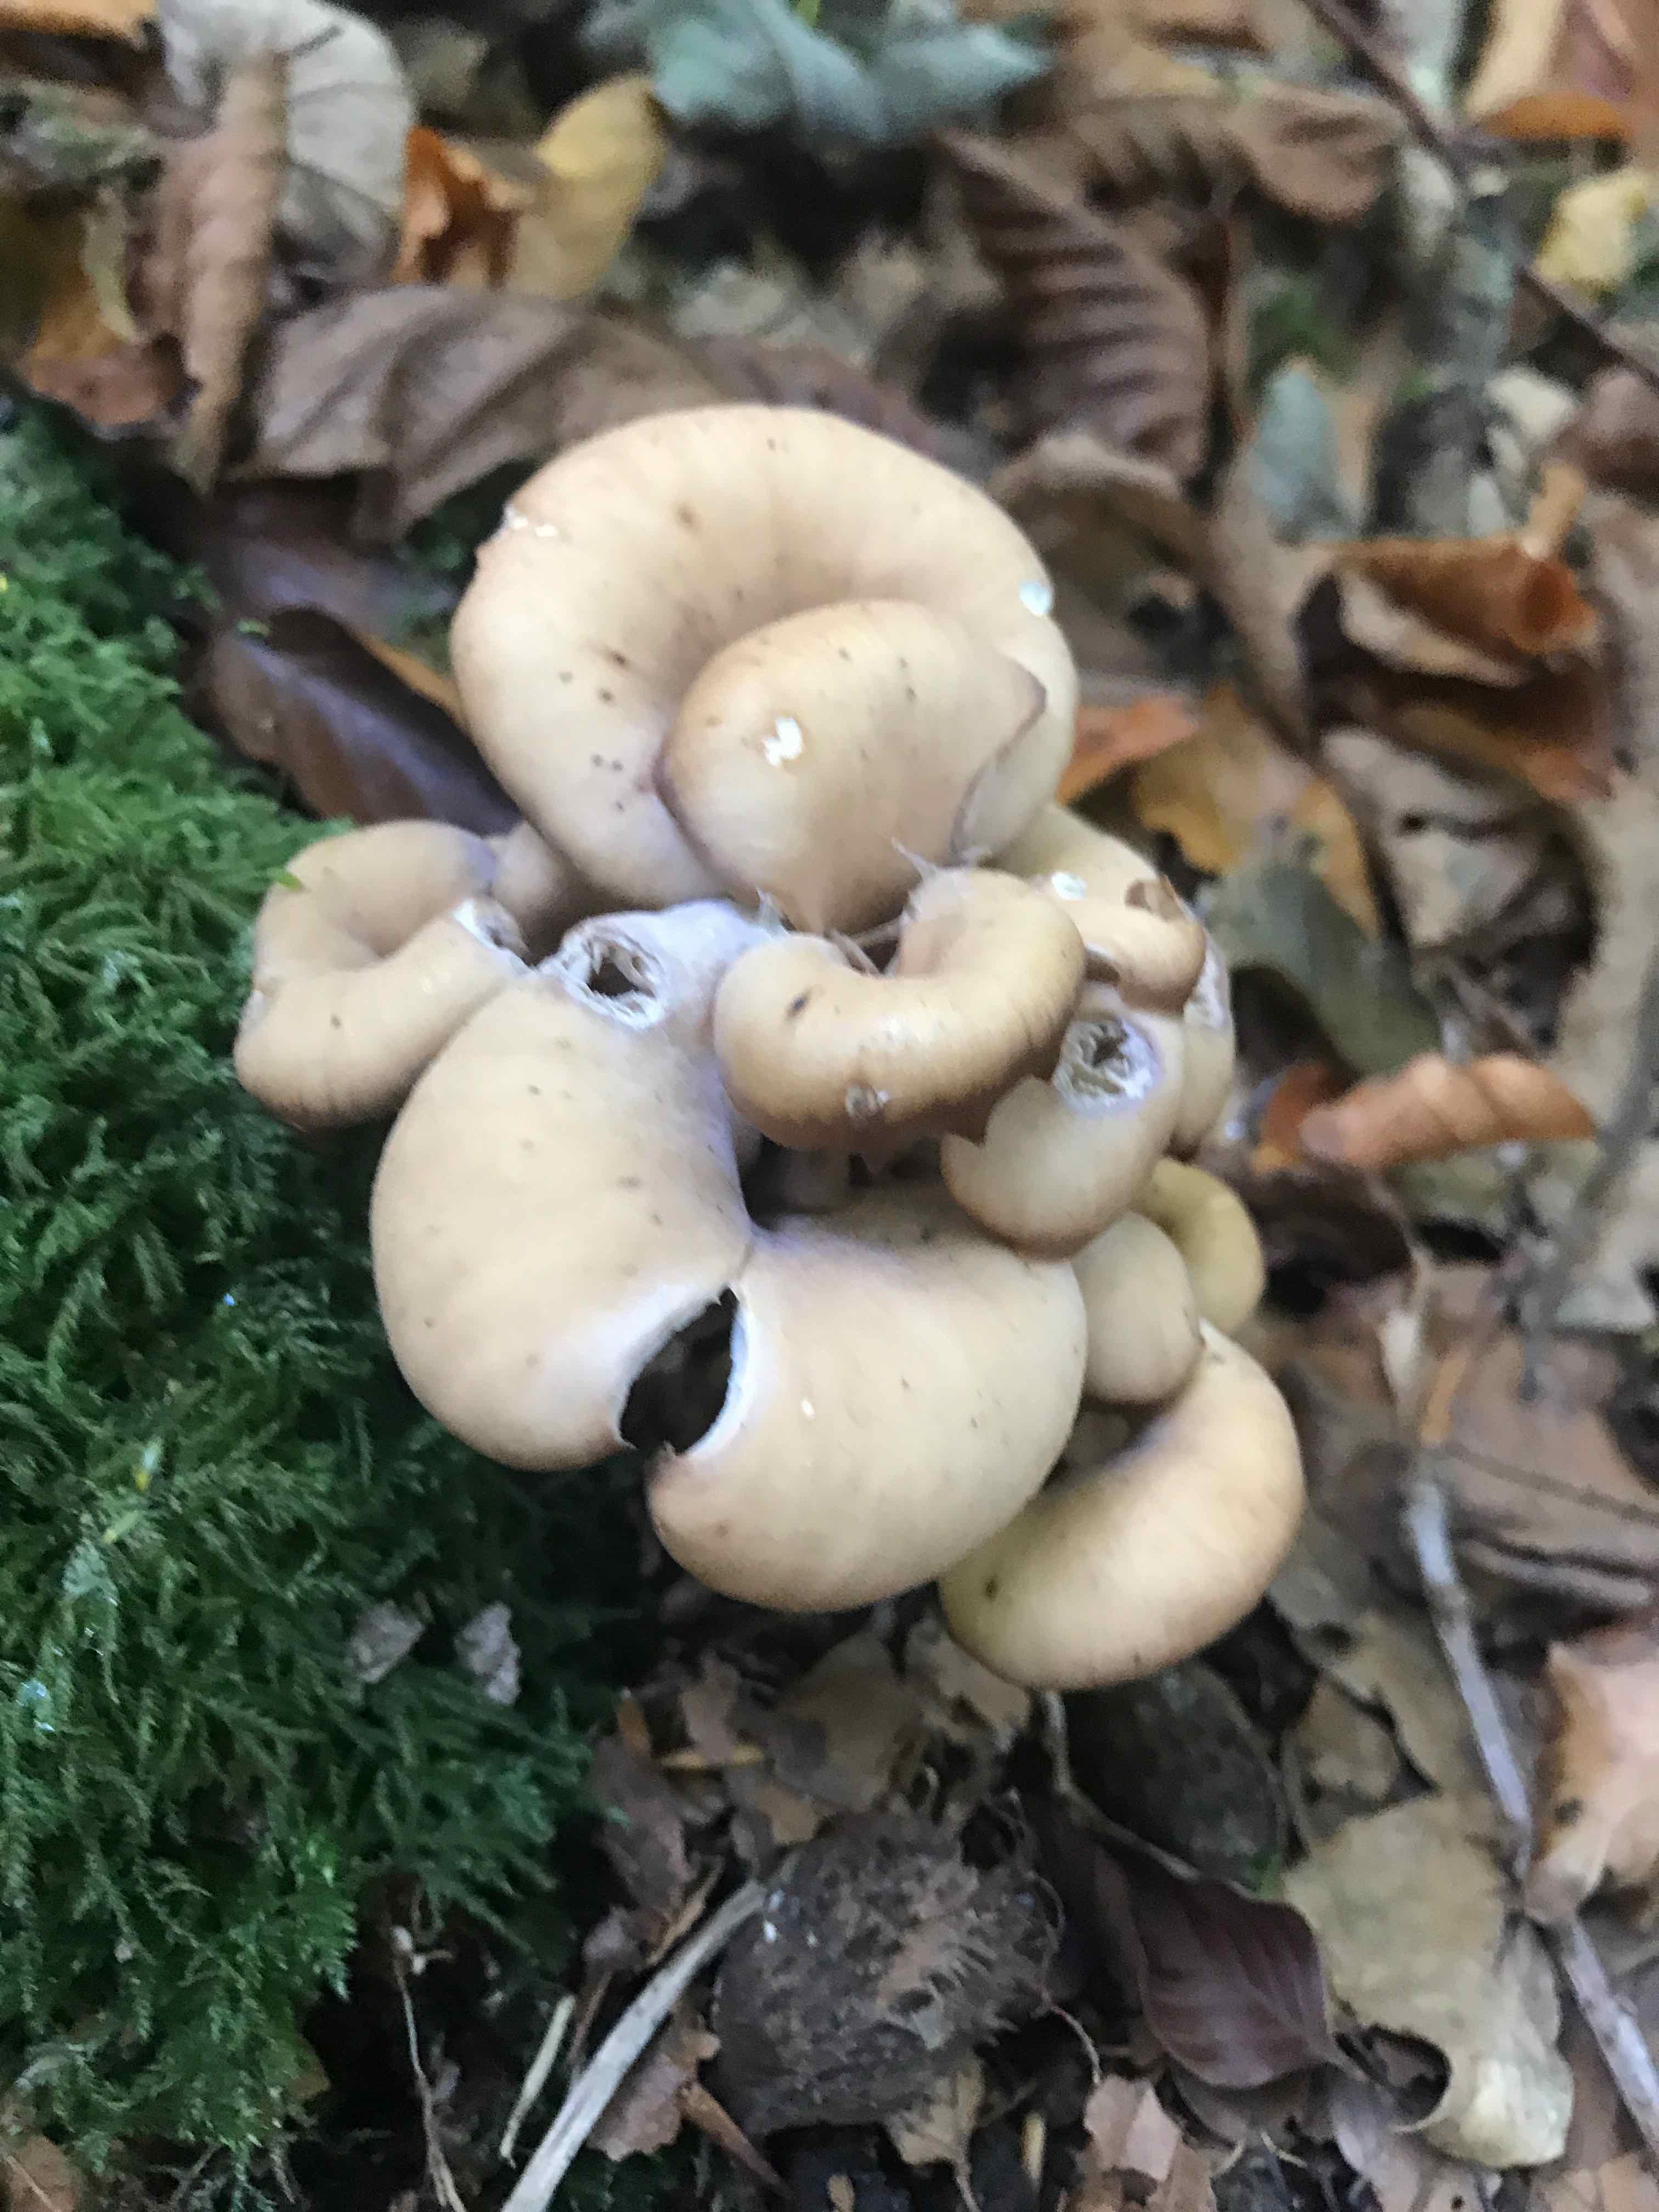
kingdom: Fungi
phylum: Basidiomycota
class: Agaricomycetes
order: Russulales
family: Auriscalpiaceae
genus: Lentinellus
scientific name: Lentinellus cochleatus
